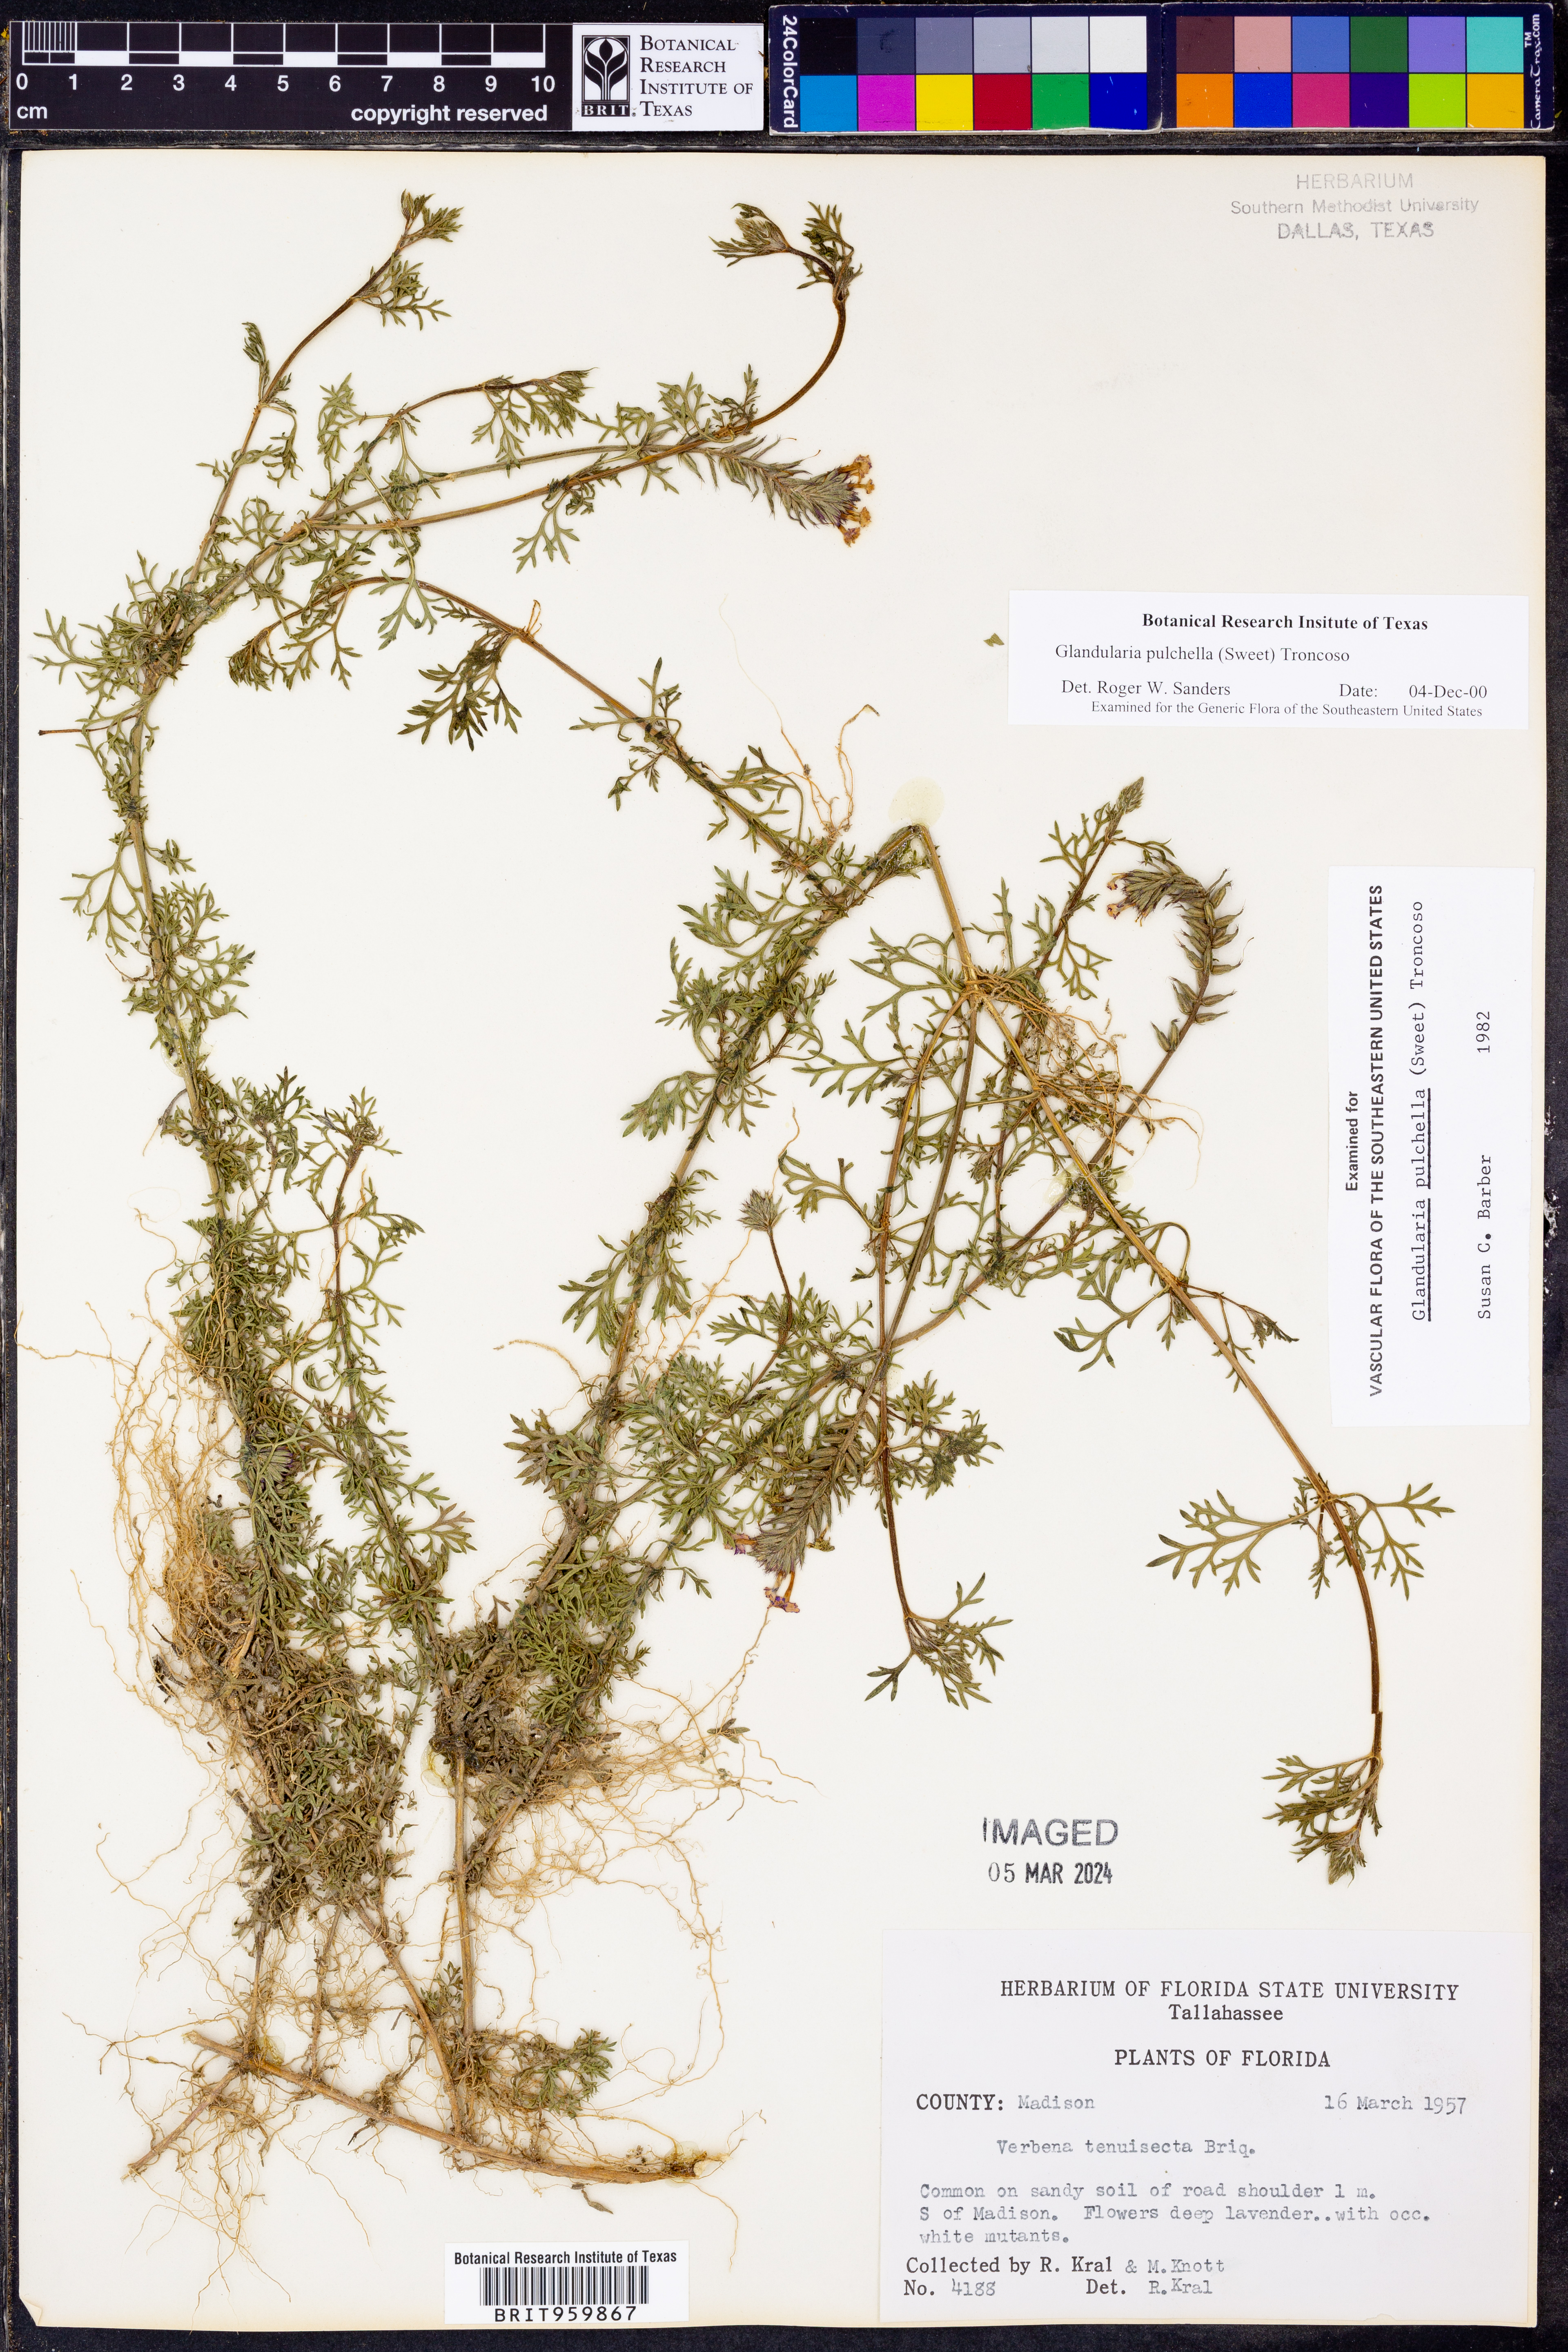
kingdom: Plantae
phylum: Tracheophyta
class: Magnoliopsida
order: Lamiales
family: Verbenaceae
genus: Verbena
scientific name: Verbena tenera
